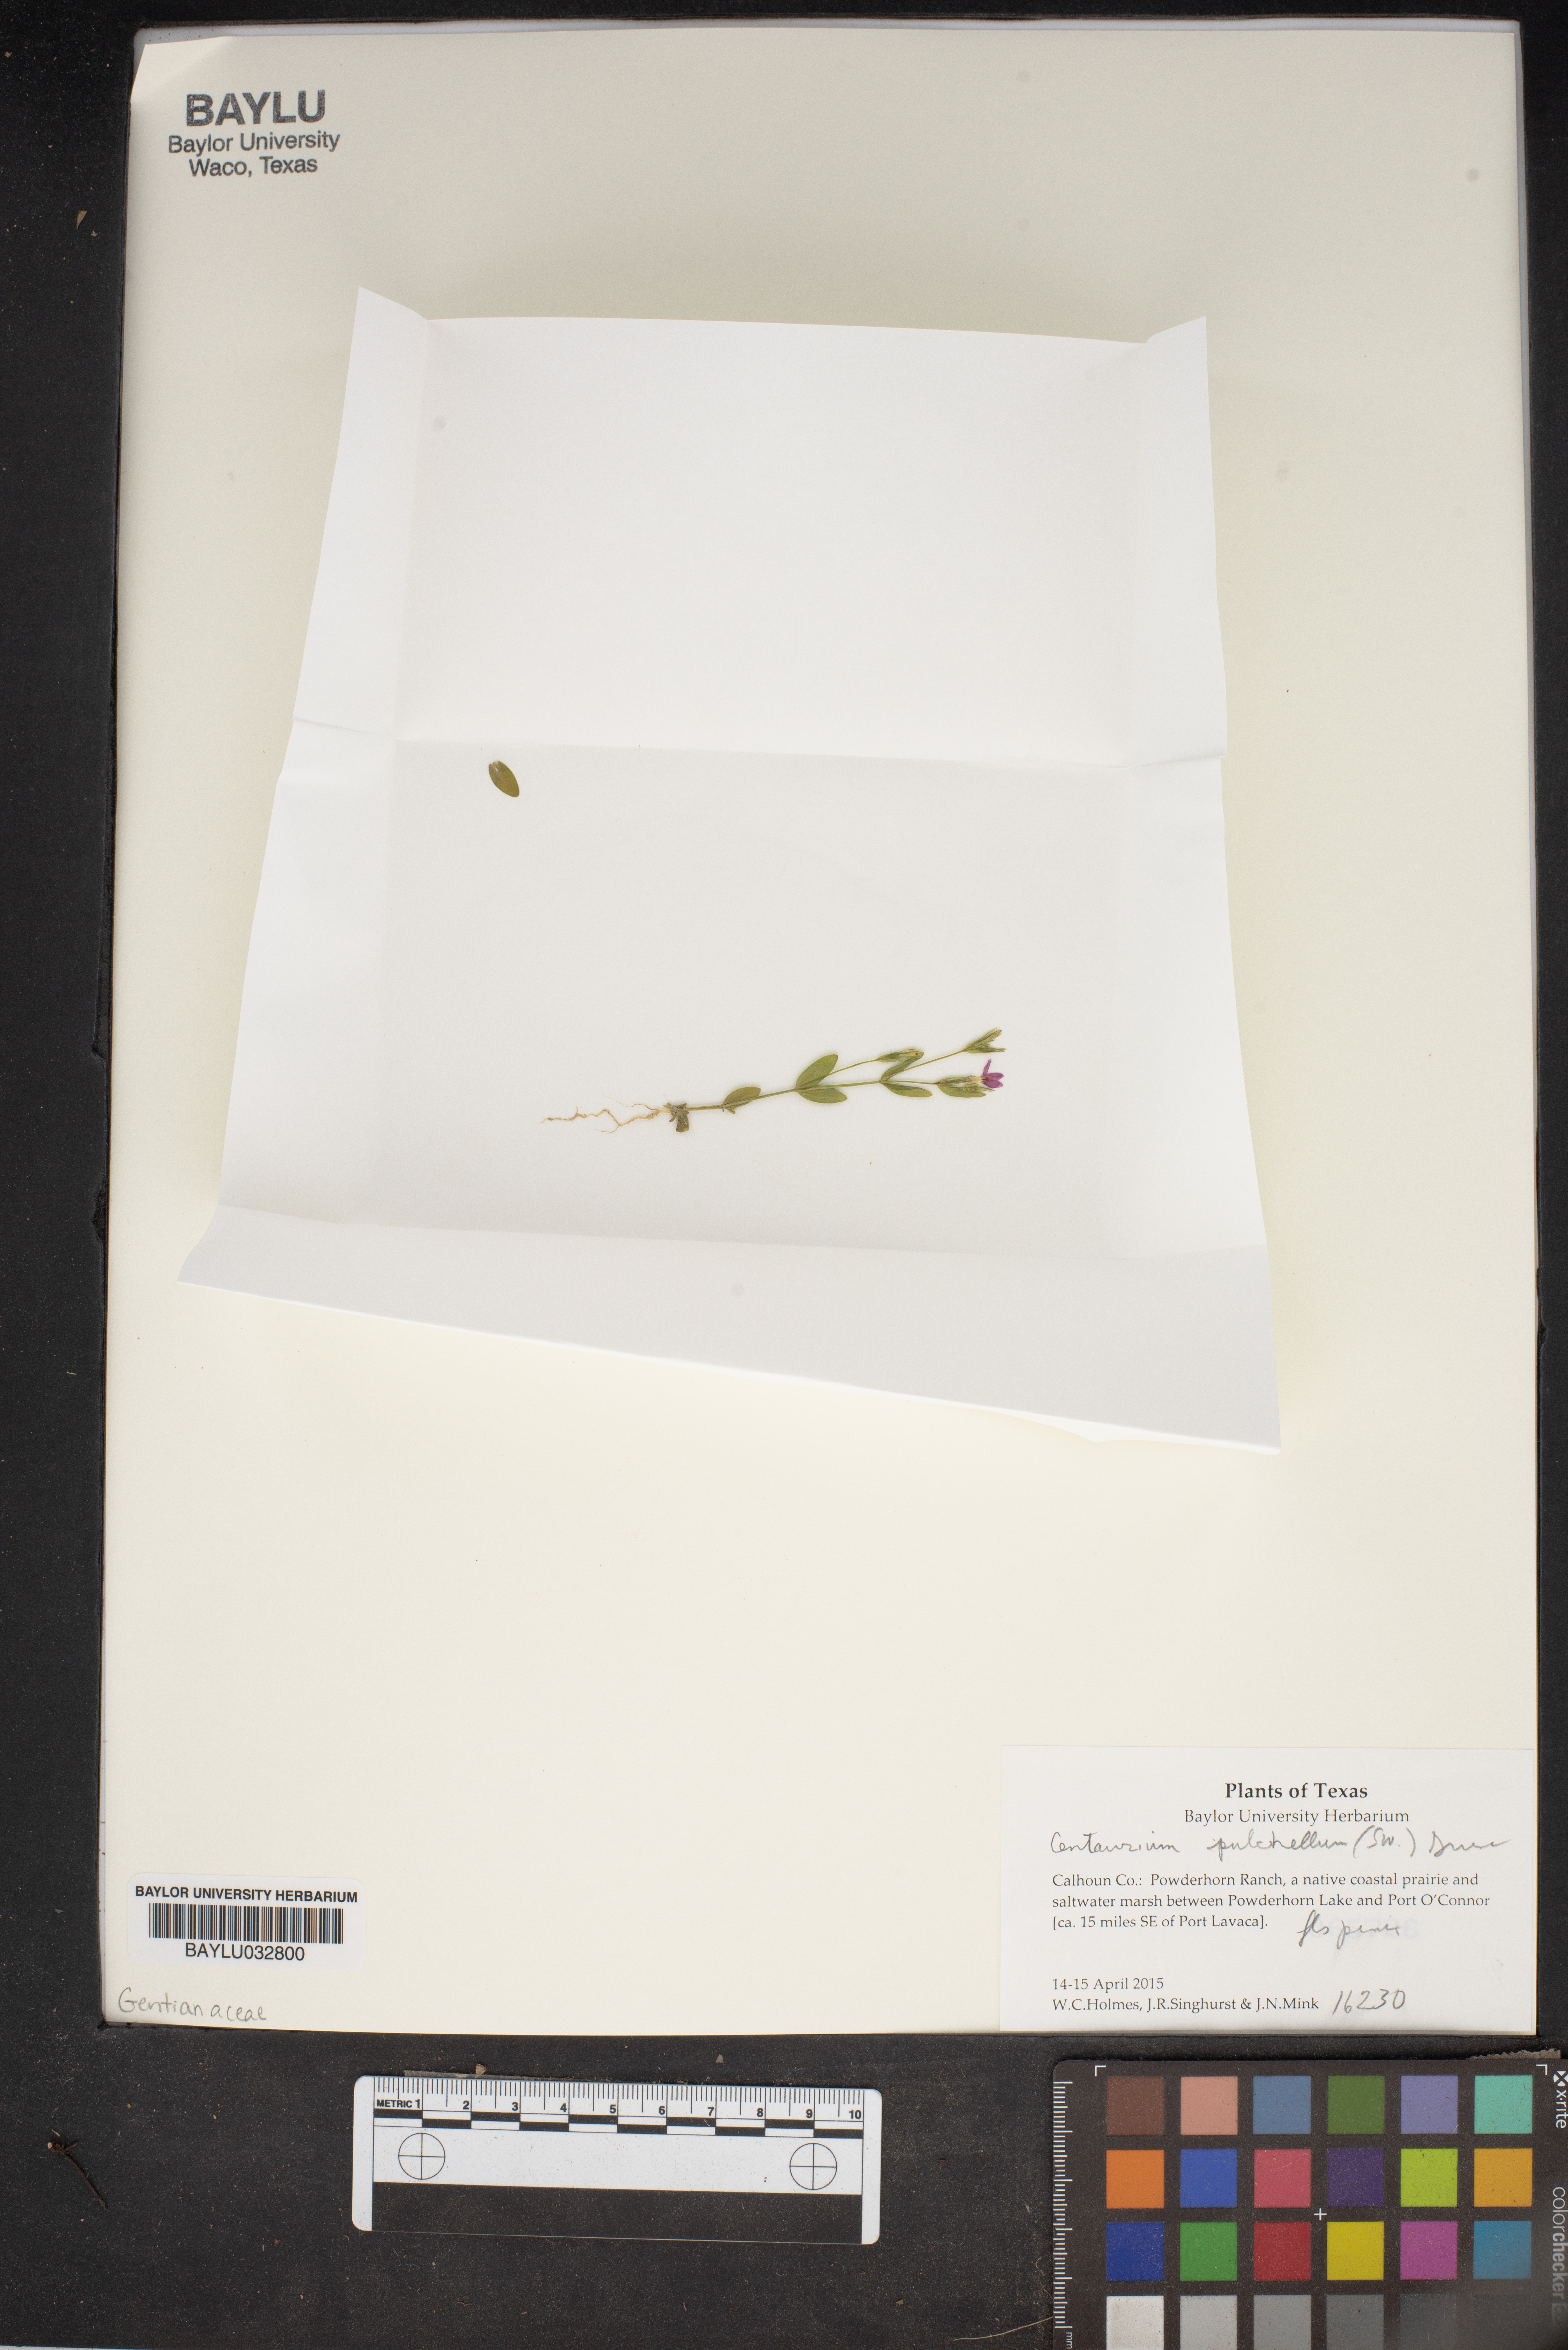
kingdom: Plantae
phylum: Tracheophyta
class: Magnoliopsida
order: Gentianales
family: Gentianaceae
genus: Centaurium
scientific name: Centaurium pulchellum
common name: Lesser centaury
